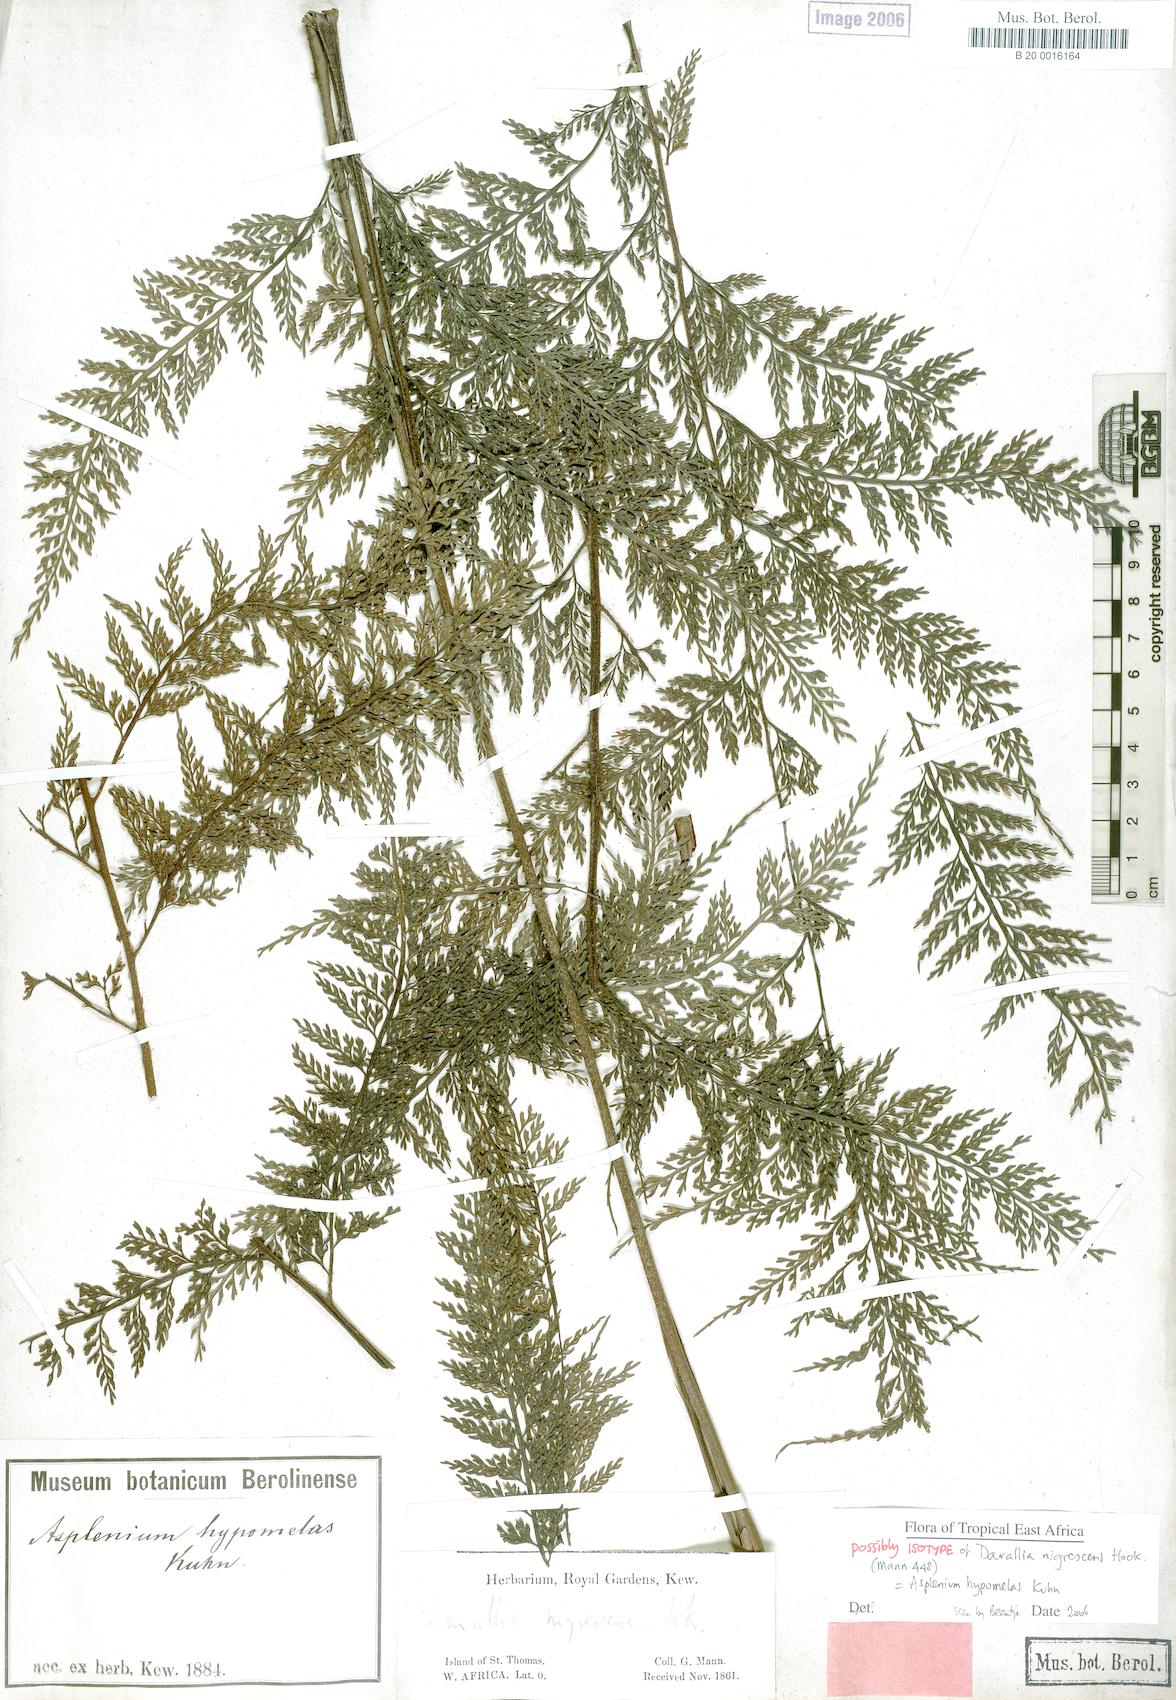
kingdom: Plantae
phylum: Tracheophyta
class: Polypodiopsida
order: Polypodiales
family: Aspleniaceae
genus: Asplenium
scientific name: Asplenium hypomelas
